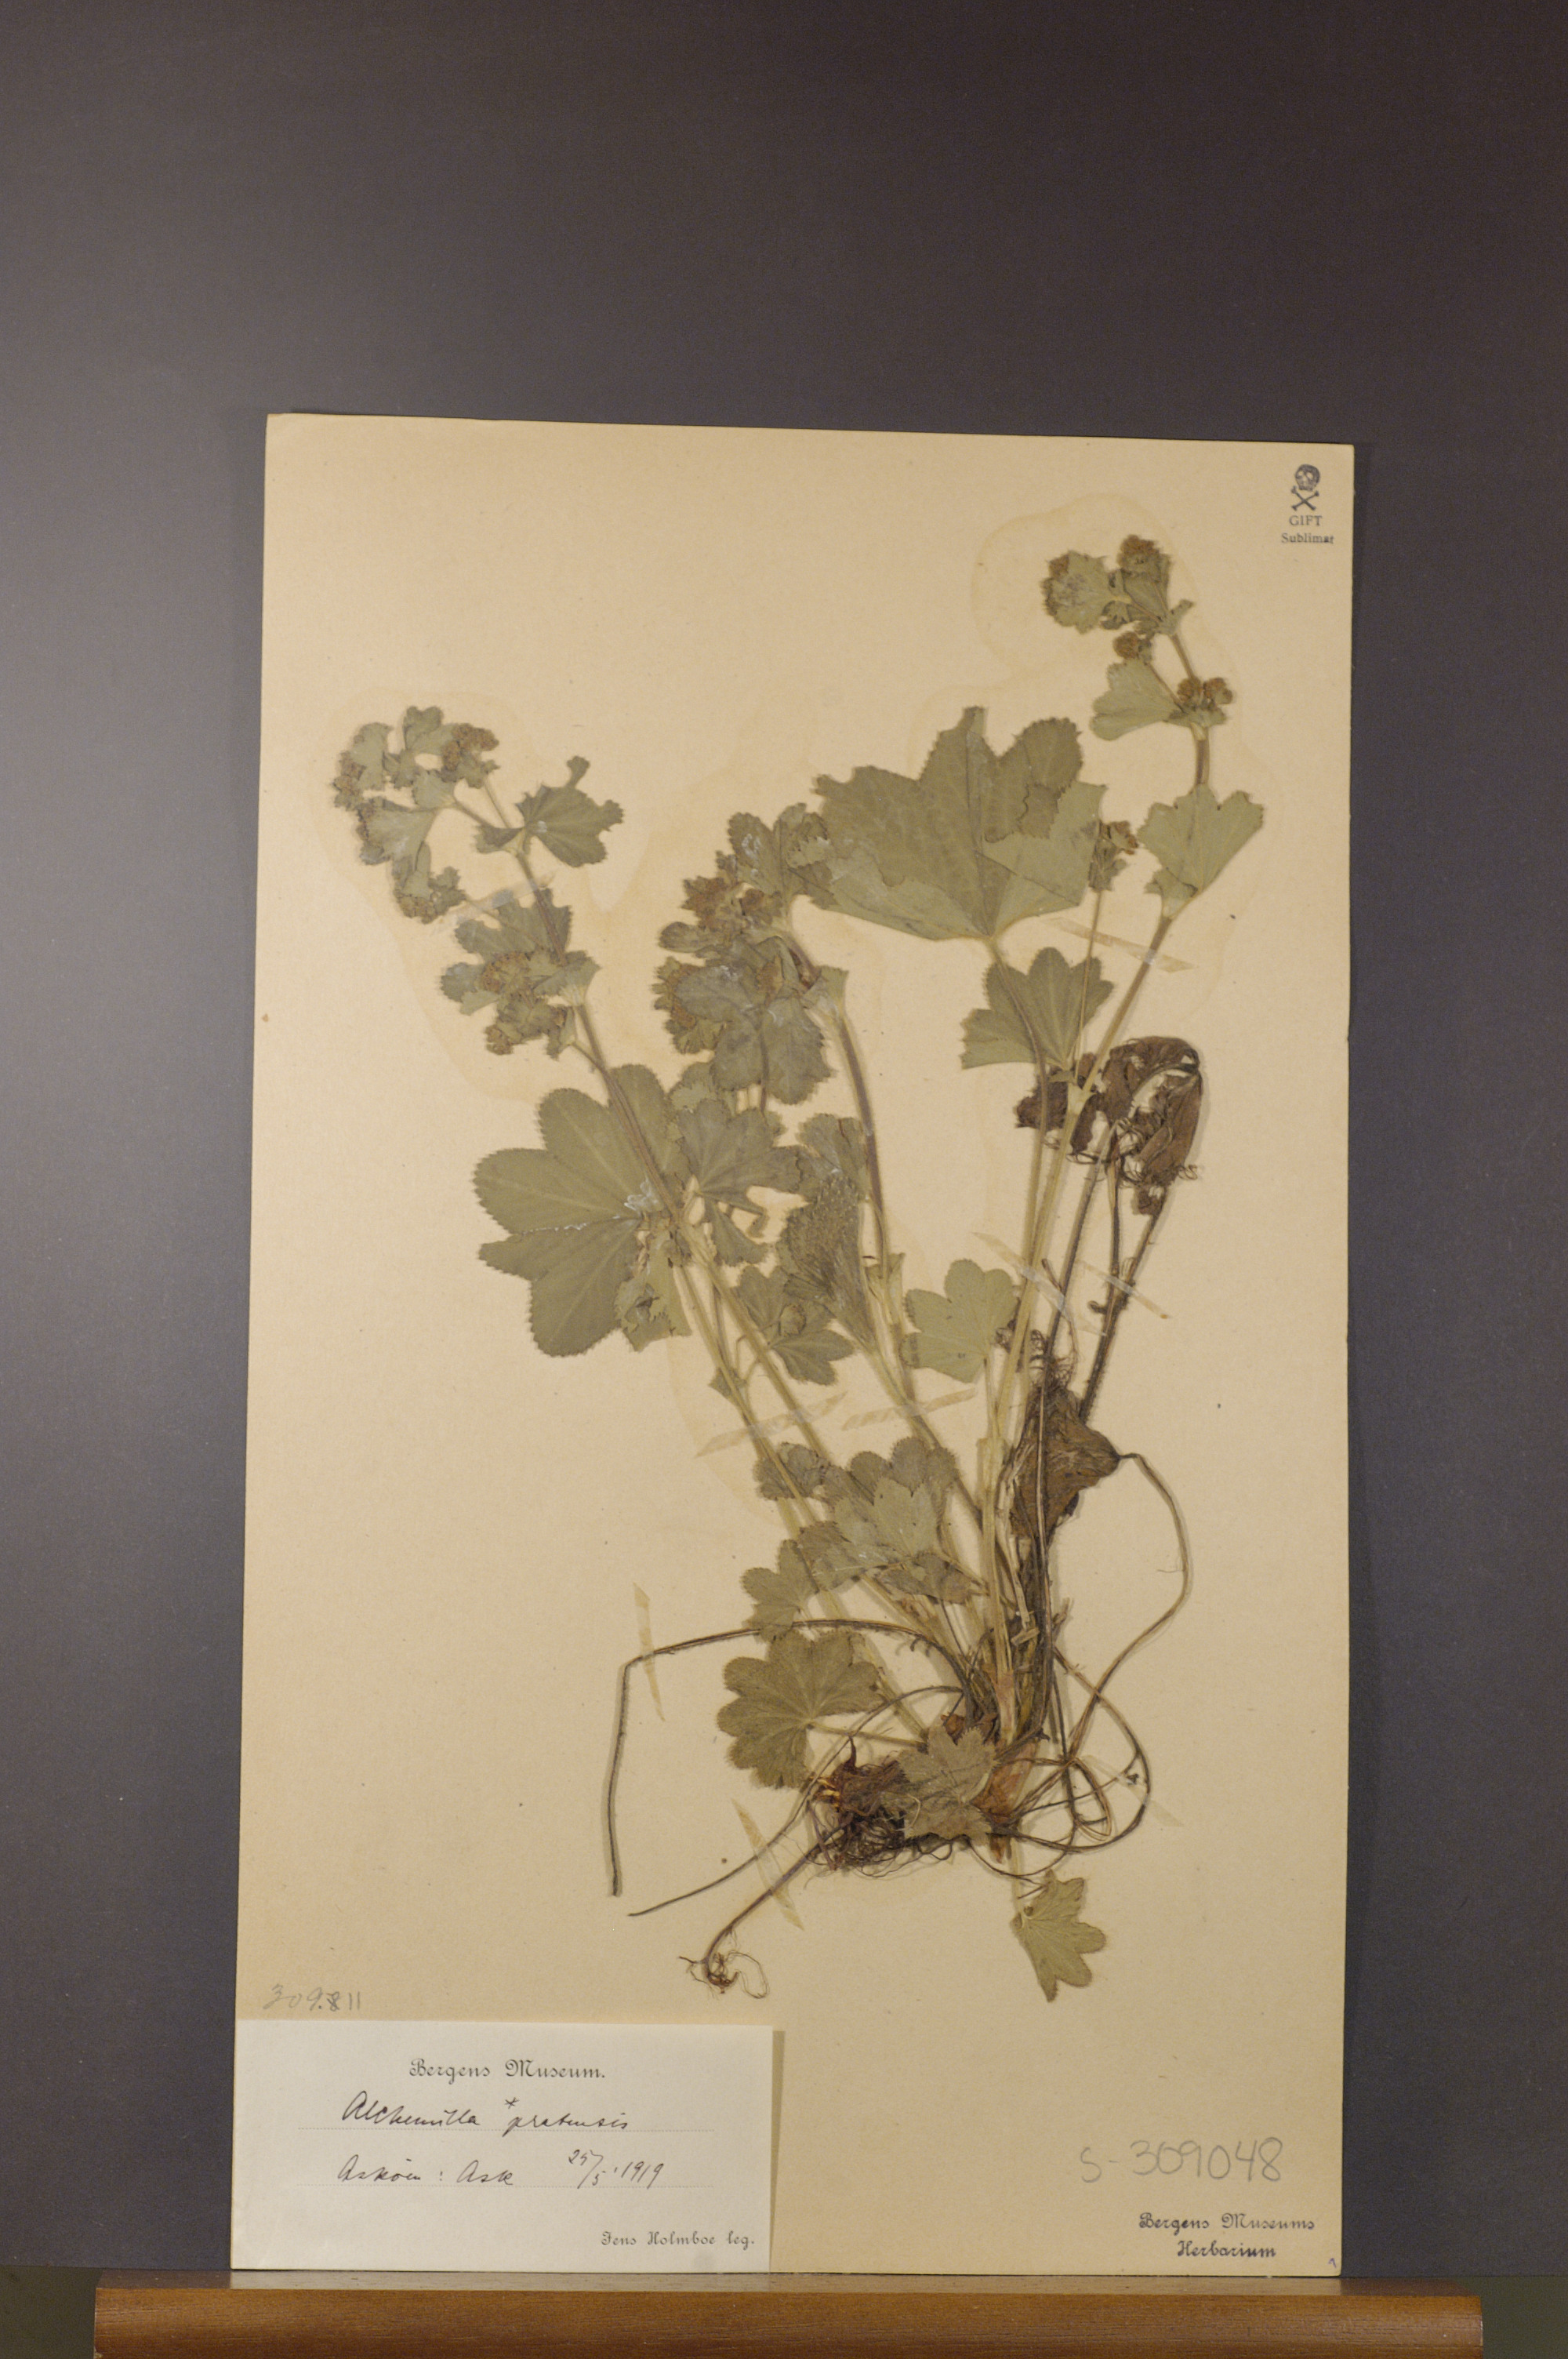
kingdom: Plantae
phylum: Tracheophyta
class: Magnoliopsida
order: Rosales
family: Rosaceae
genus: Alchemilla
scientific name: Alchemilla xanthochlora
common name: Intermediate lady's-mantle
